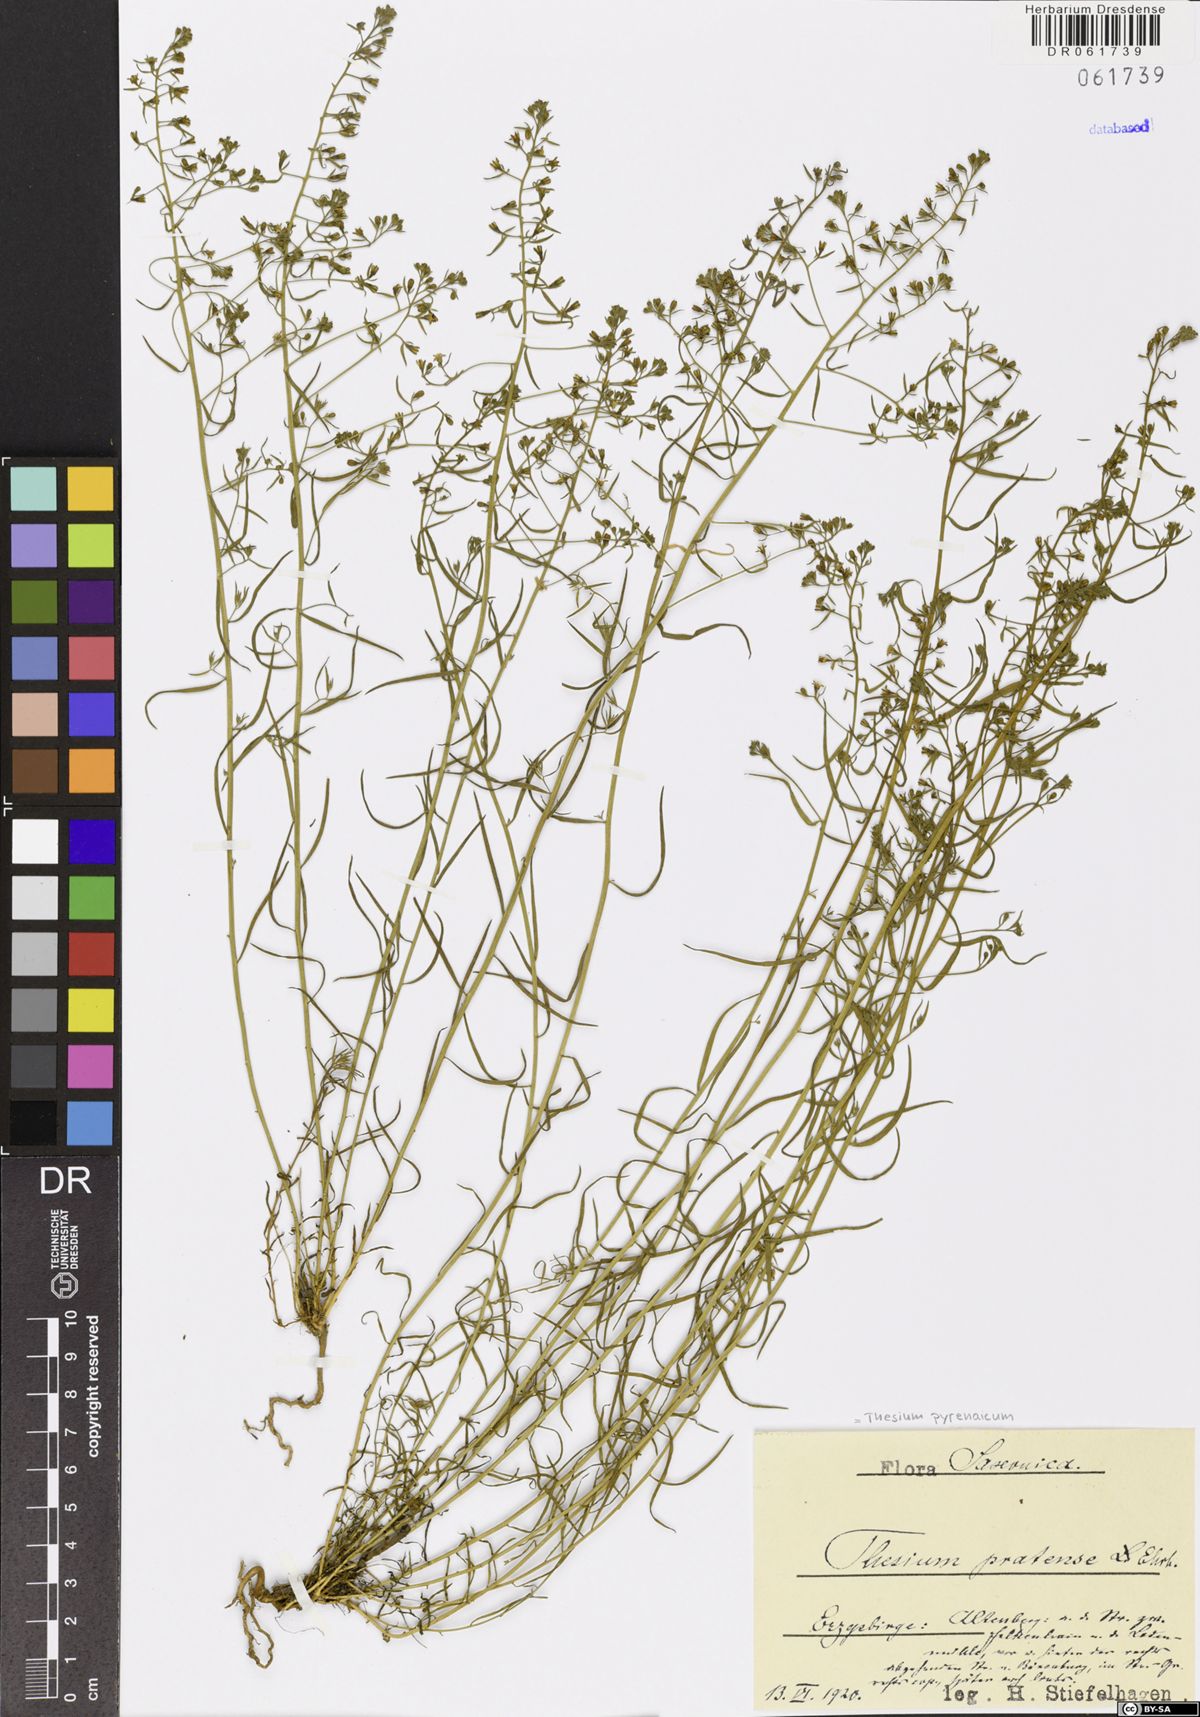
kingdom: Plantae
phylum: Tracheophyta
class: Magnoliopsida
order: Santalales
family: Thesiaceae
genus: Thesium
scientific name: Thesium pyrenaicum
